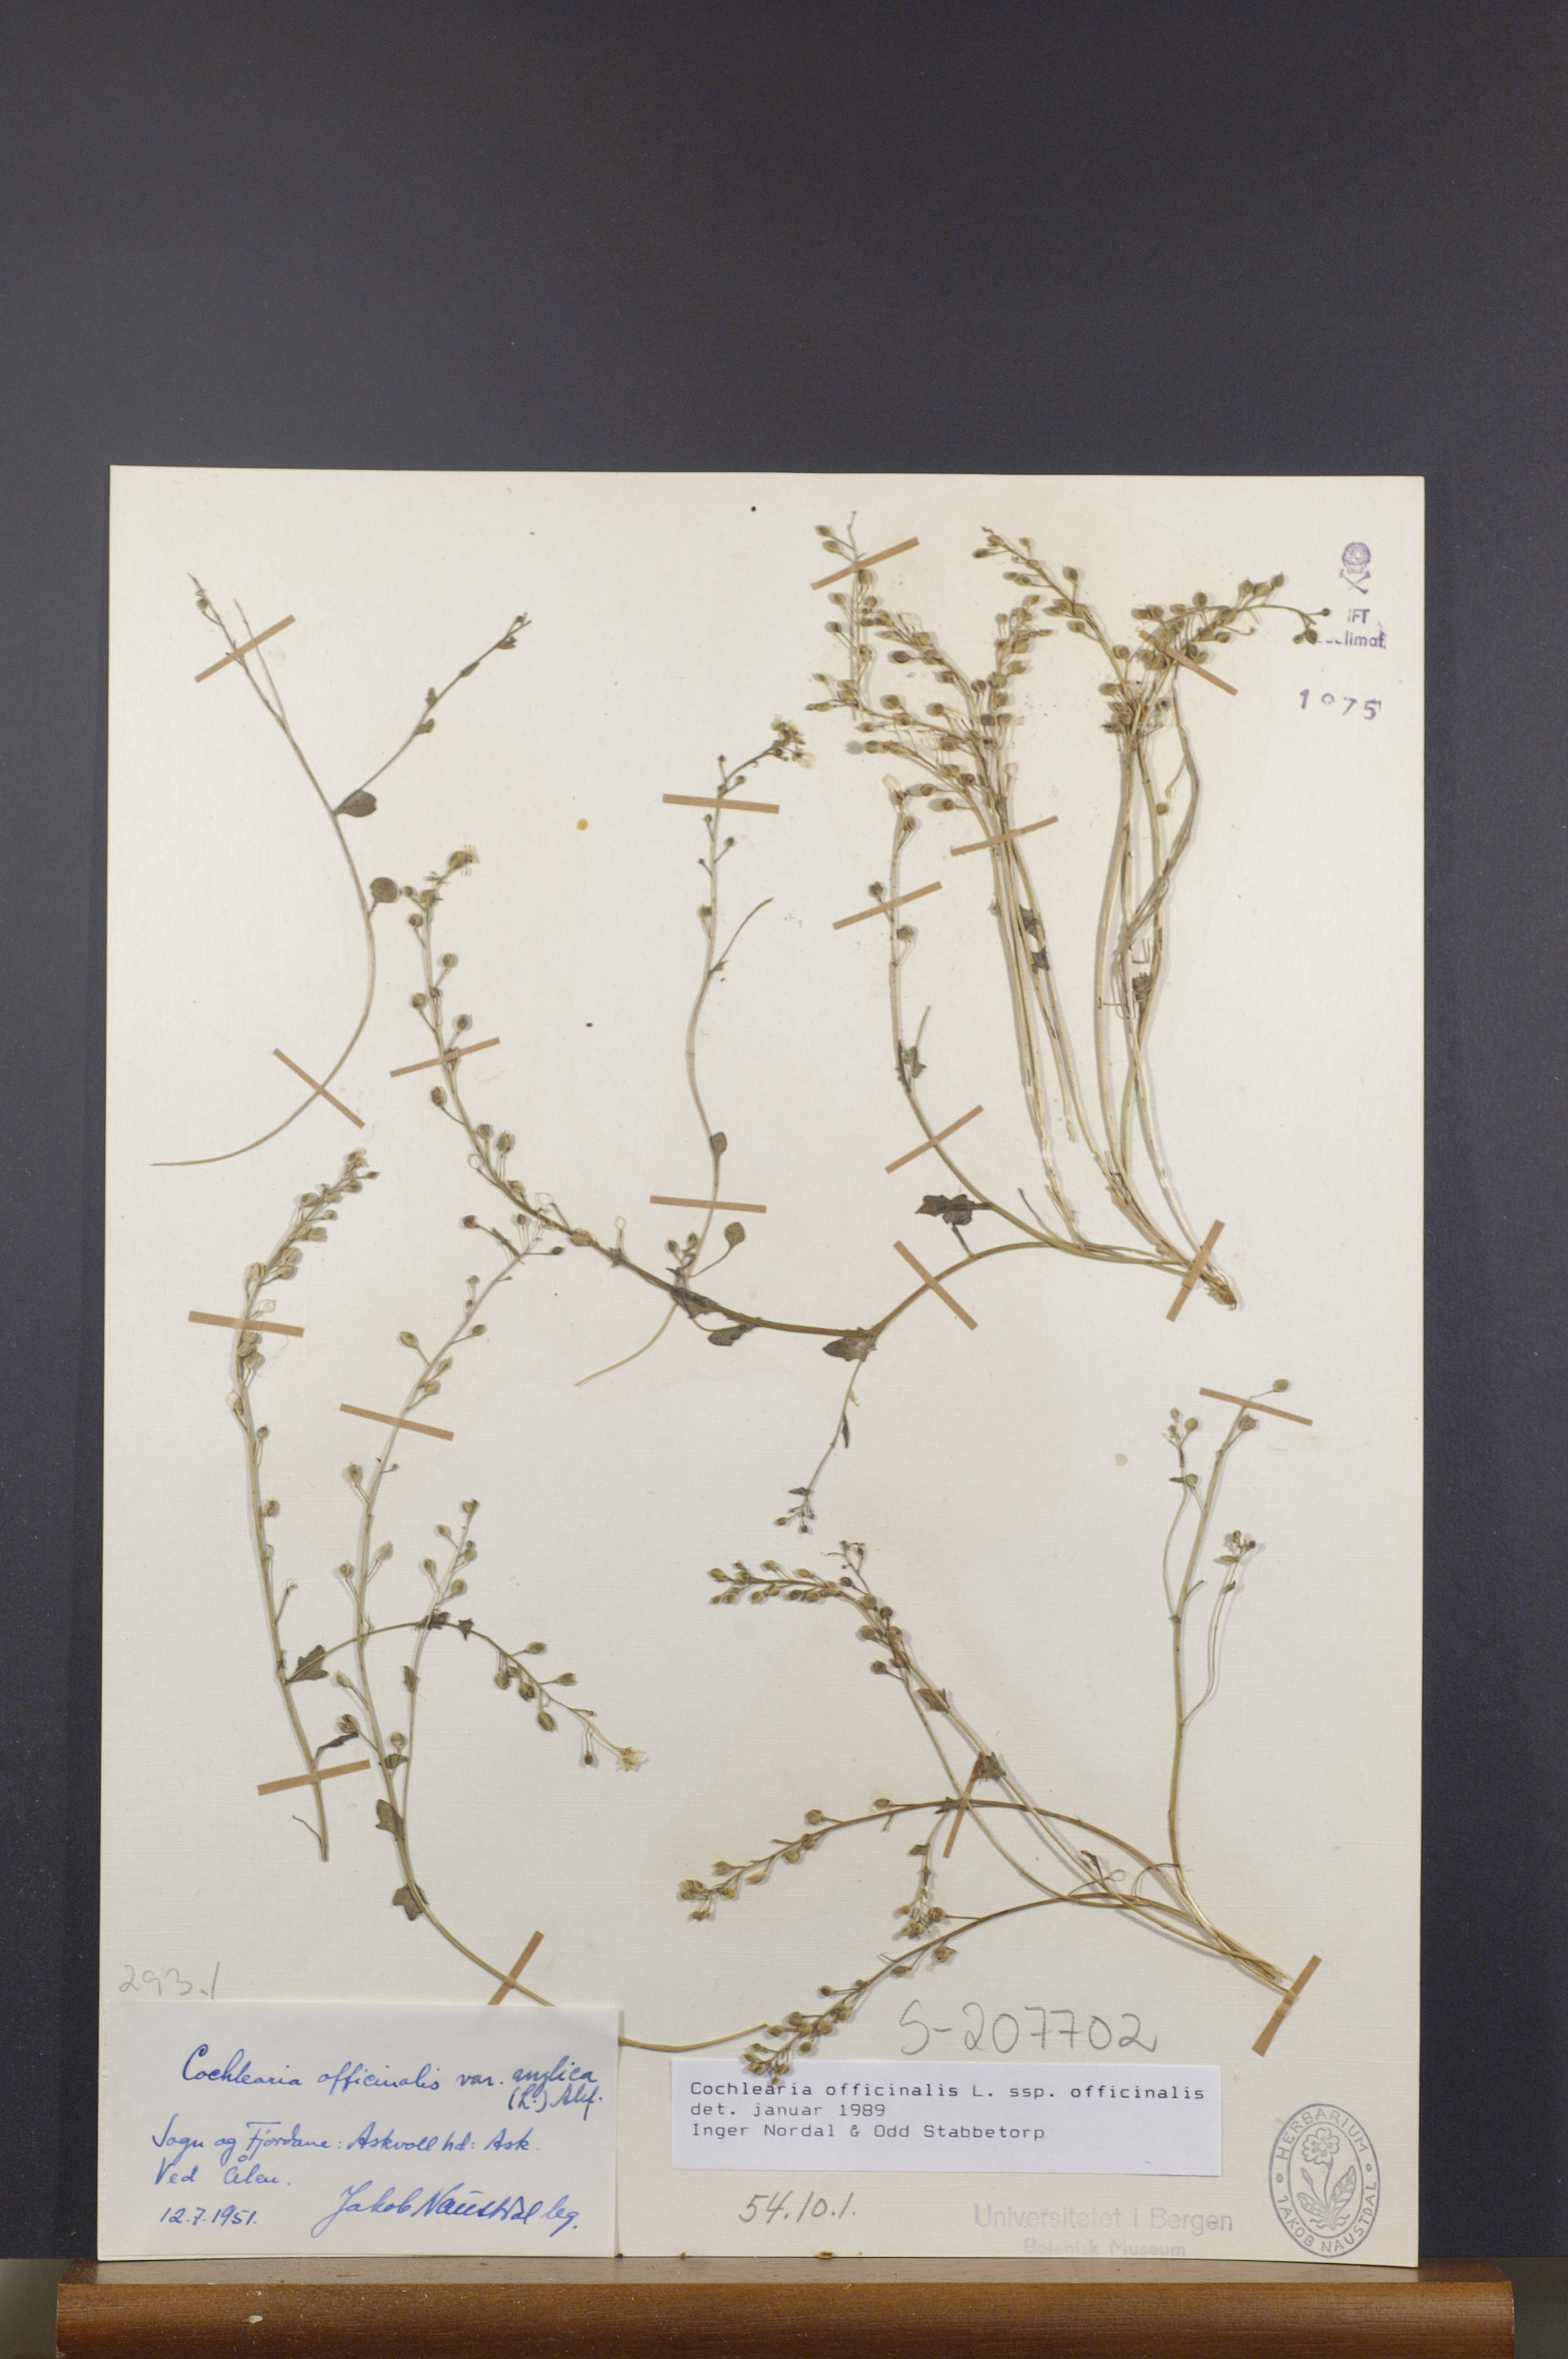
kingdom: Plantae
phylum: Tracheophyta
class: Magnoliopsida
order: Brassicales
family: Brassicaceae
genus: Cochlearia
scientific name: Cochlearia officinalis
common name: Scurvy-grass
